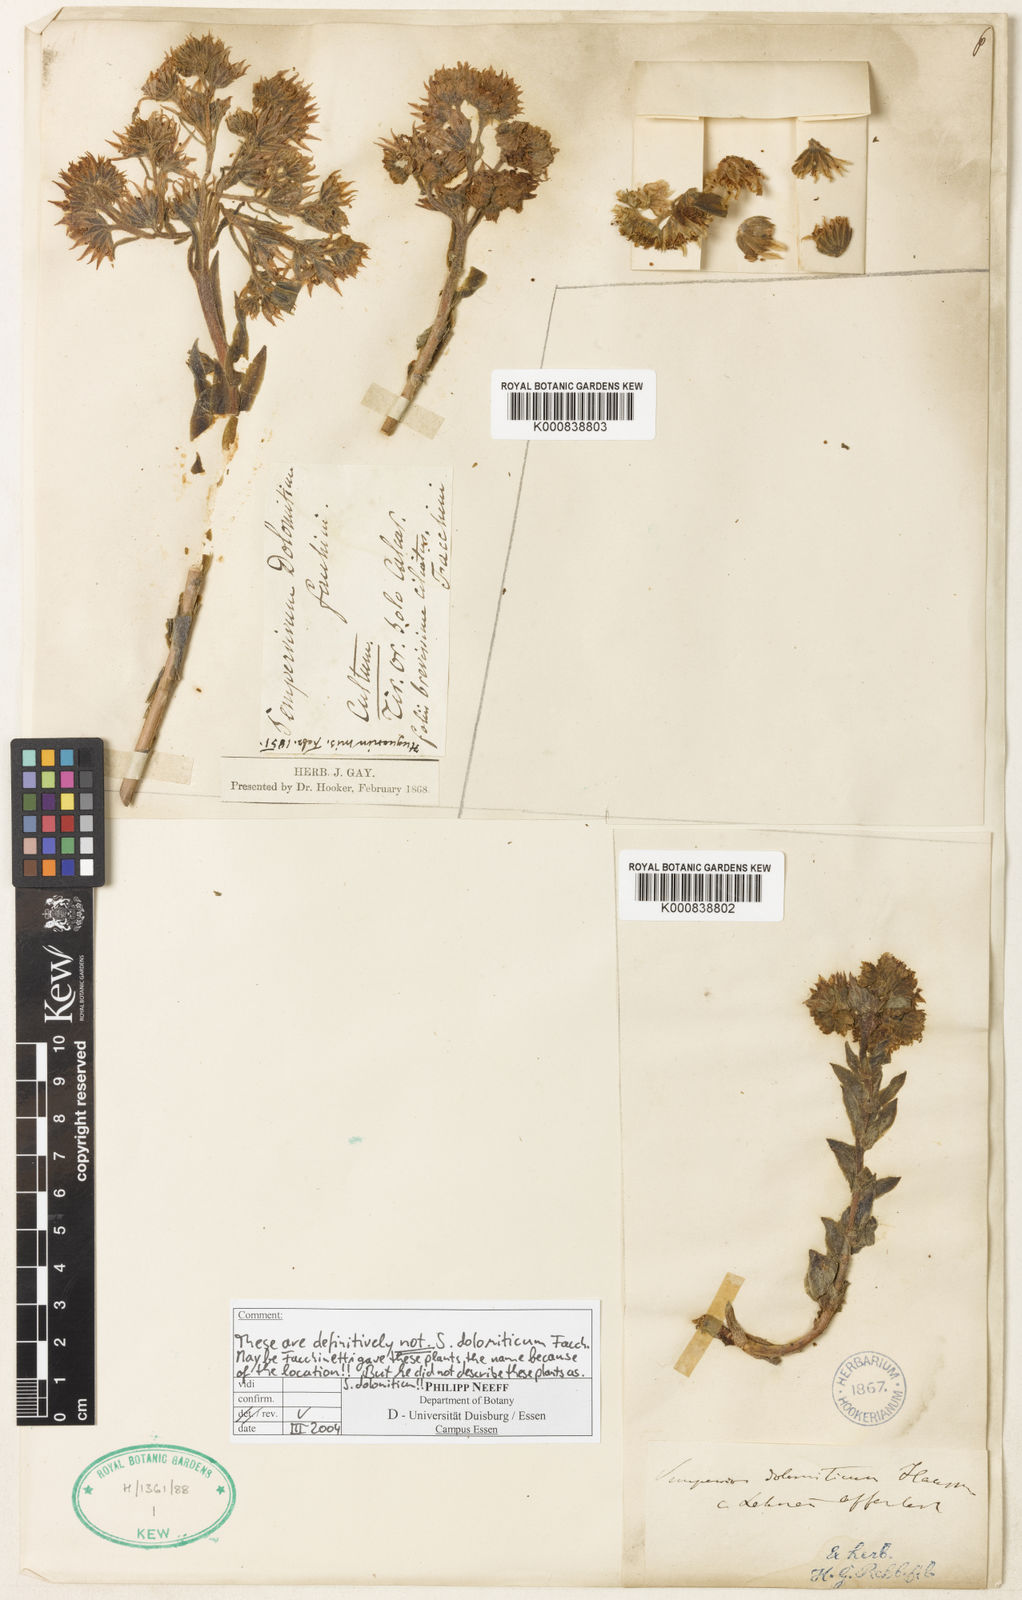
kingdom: Plantae
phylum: Tracheophyta
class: Magnoliopsida
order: Saxifragales
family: Crassulaceae
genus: Sempervivum
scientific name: Sempervivum
